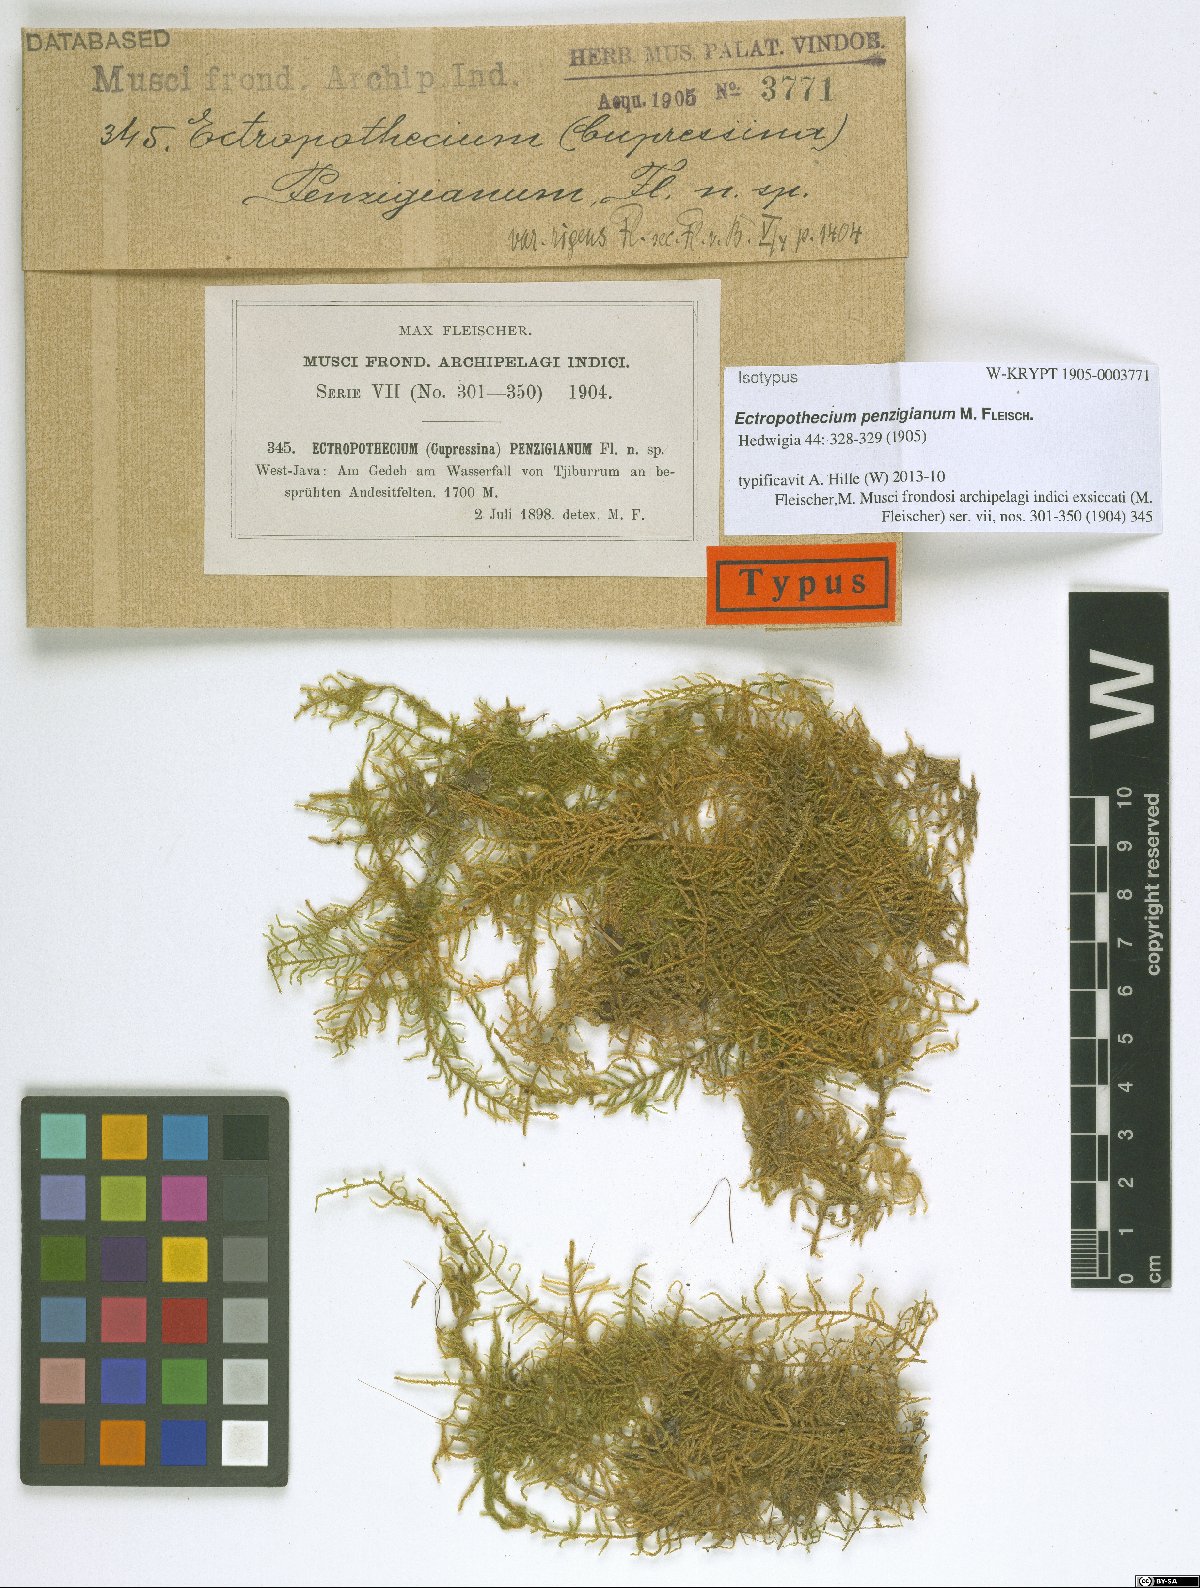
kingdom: Plantae
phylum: Bryophyta
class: Bryopsida
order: Hypnales
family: Hypnaceae
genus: Ectropothecium
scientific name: Ectropothecium penzigianum
